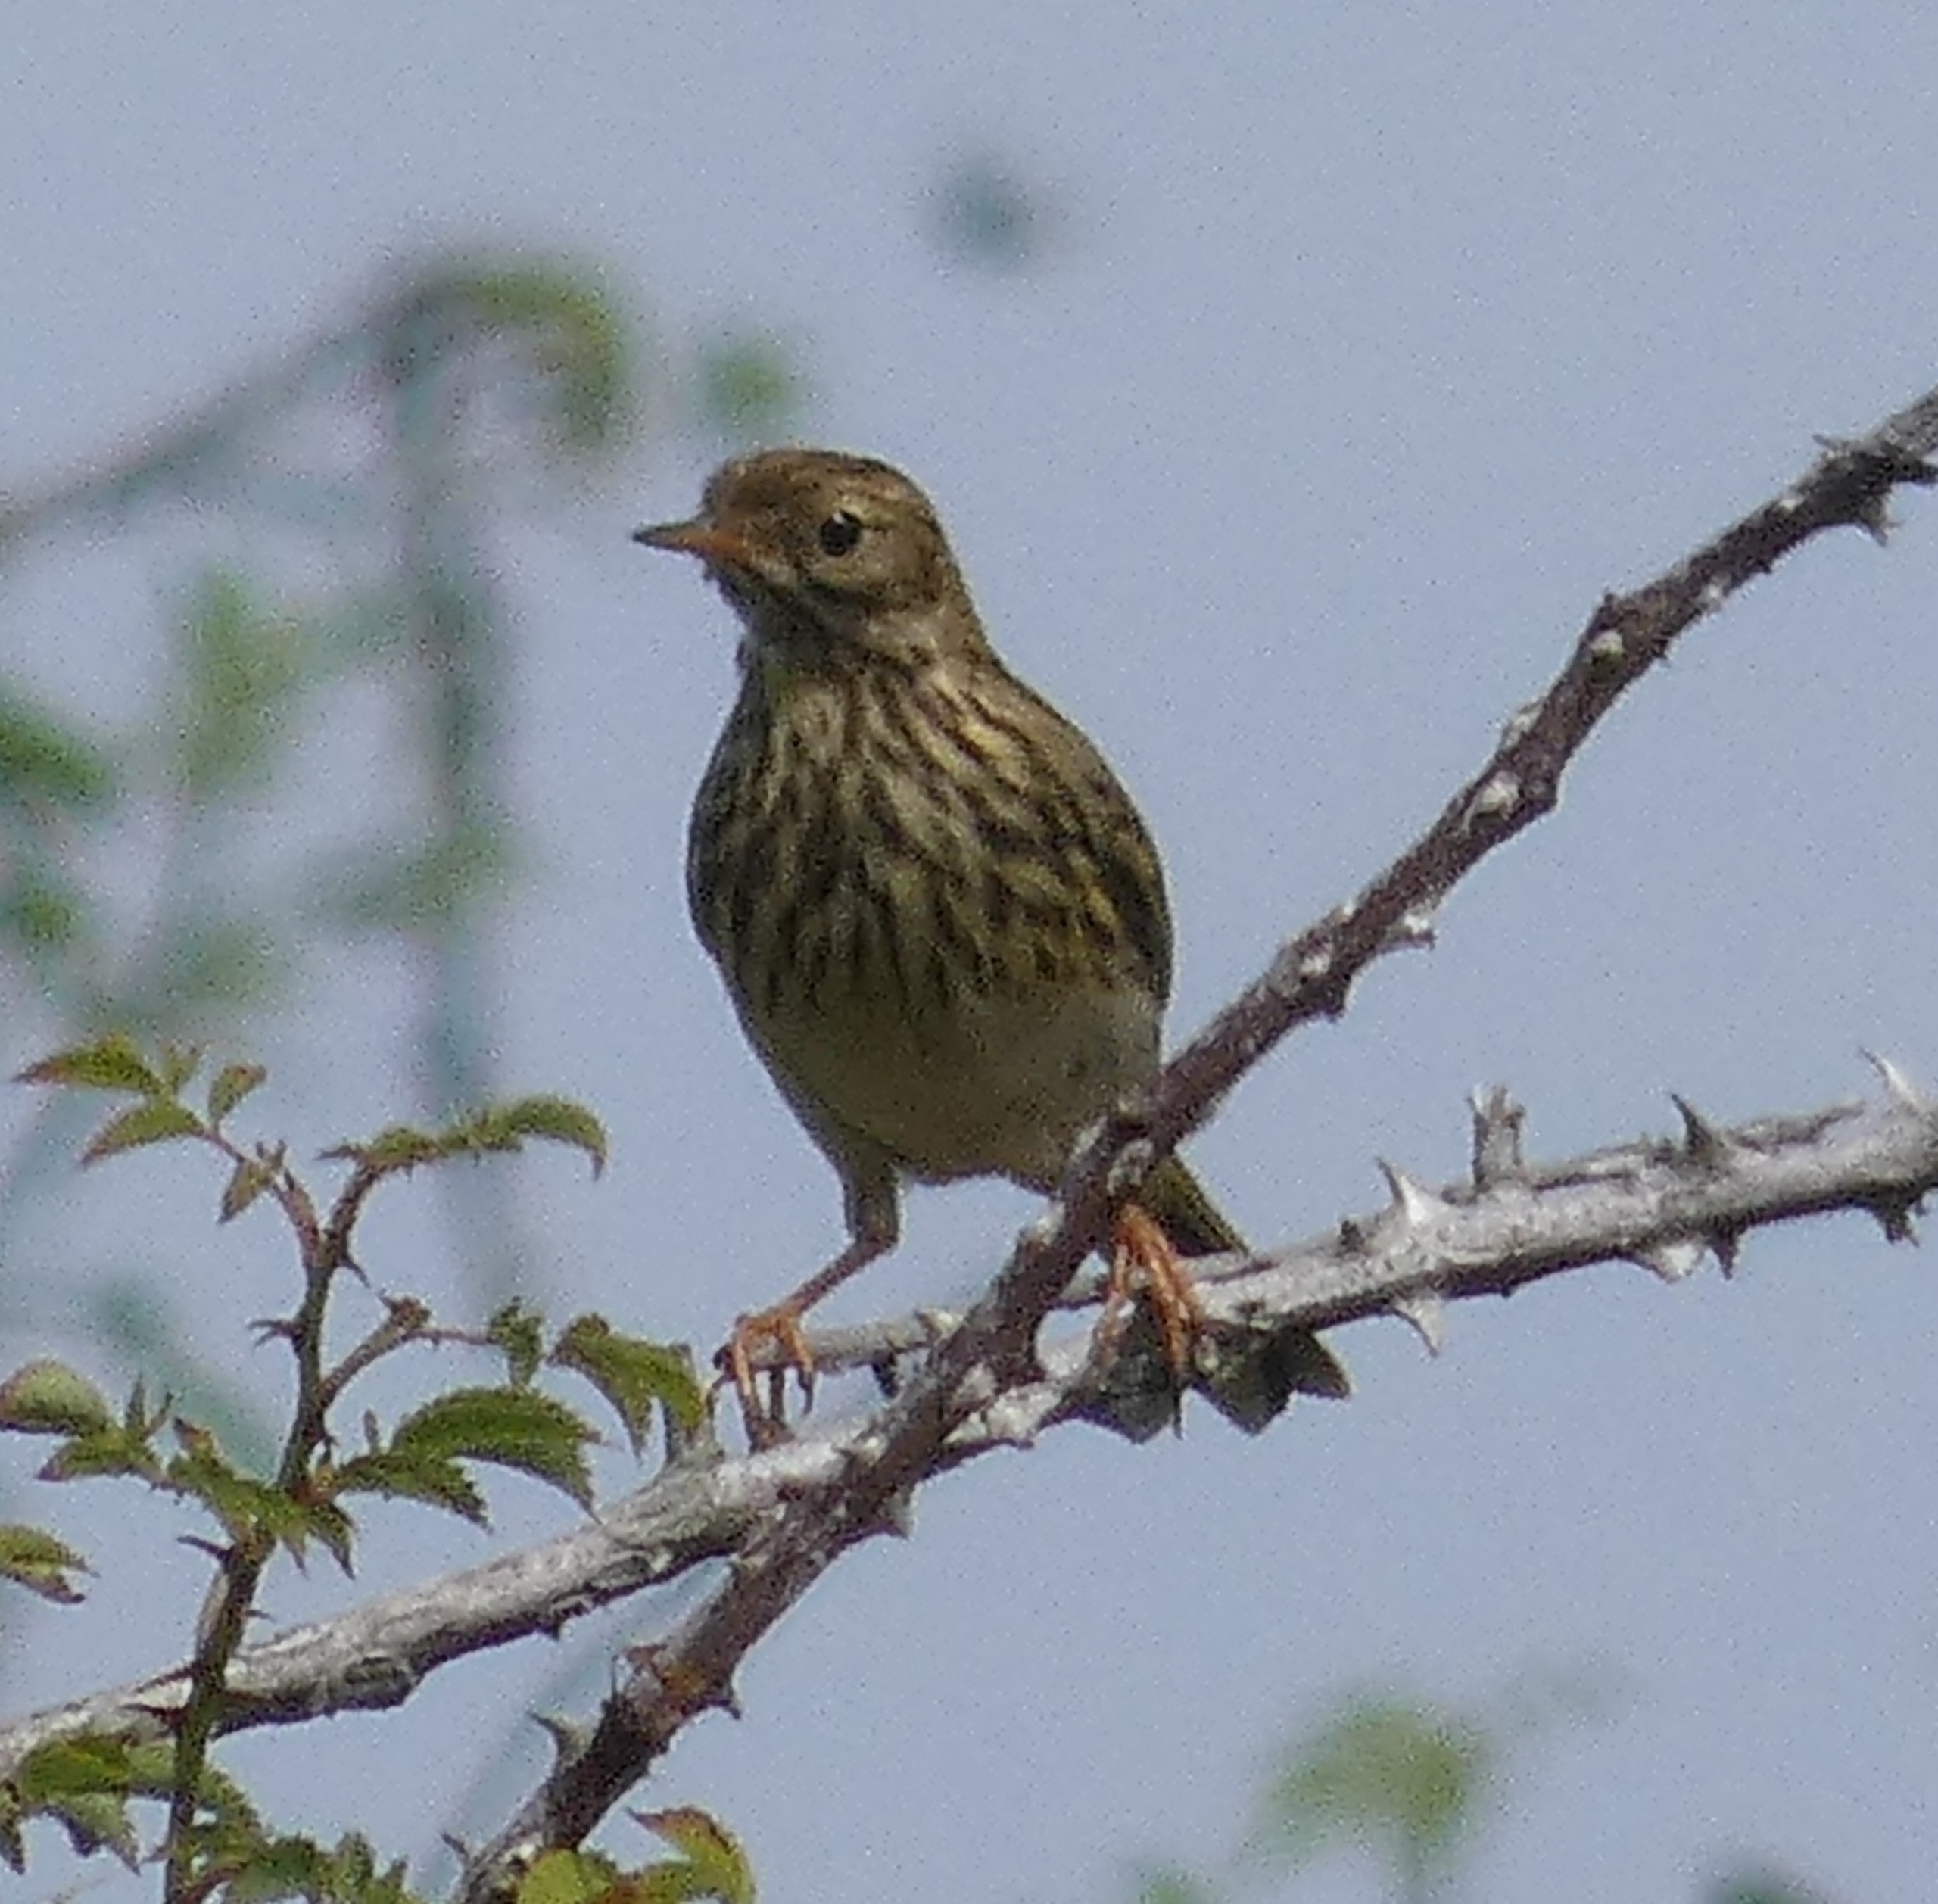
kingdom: Animalia
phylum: Chordata
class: Aves
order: Passeriformes
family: Motacillidae
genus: Anthus
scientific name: Anthus pratensis
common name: Engpiber
